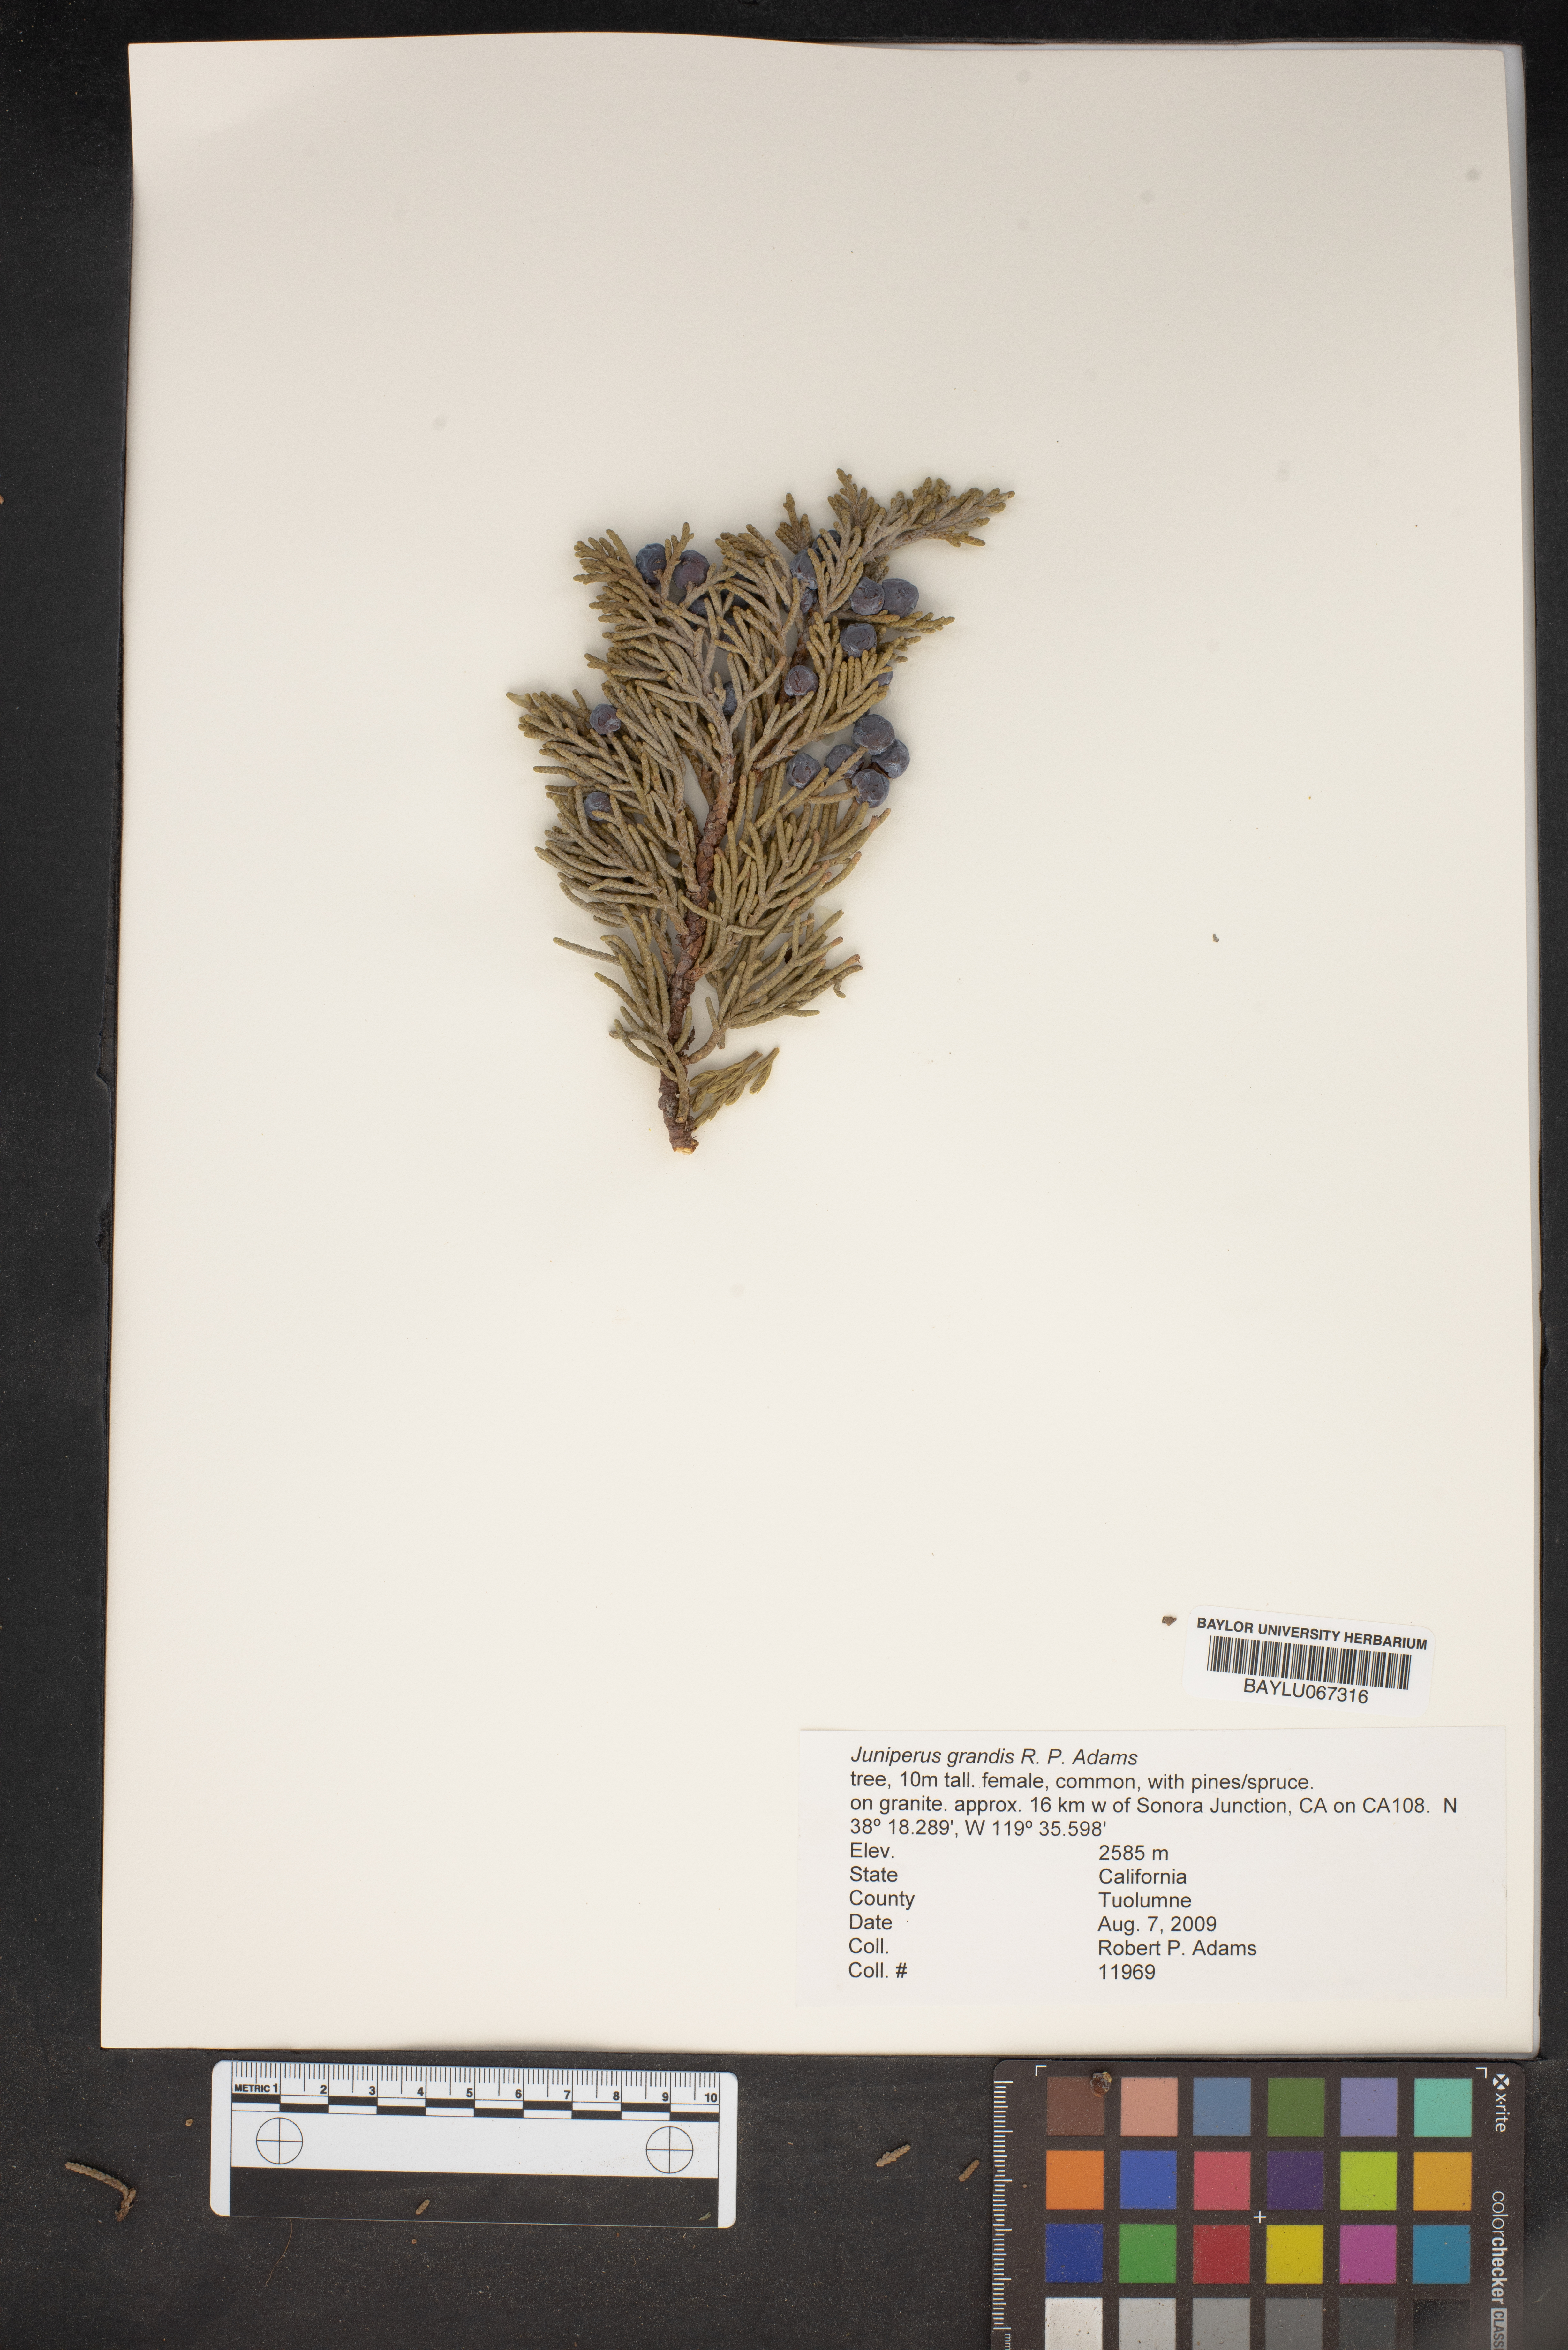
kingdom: Plantae
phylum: Tracheophyta
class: Pinopsida
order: Pinales
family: Cupressaceae
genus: Juniperus
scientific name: Juniperus occidentalis
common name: Western juniper
